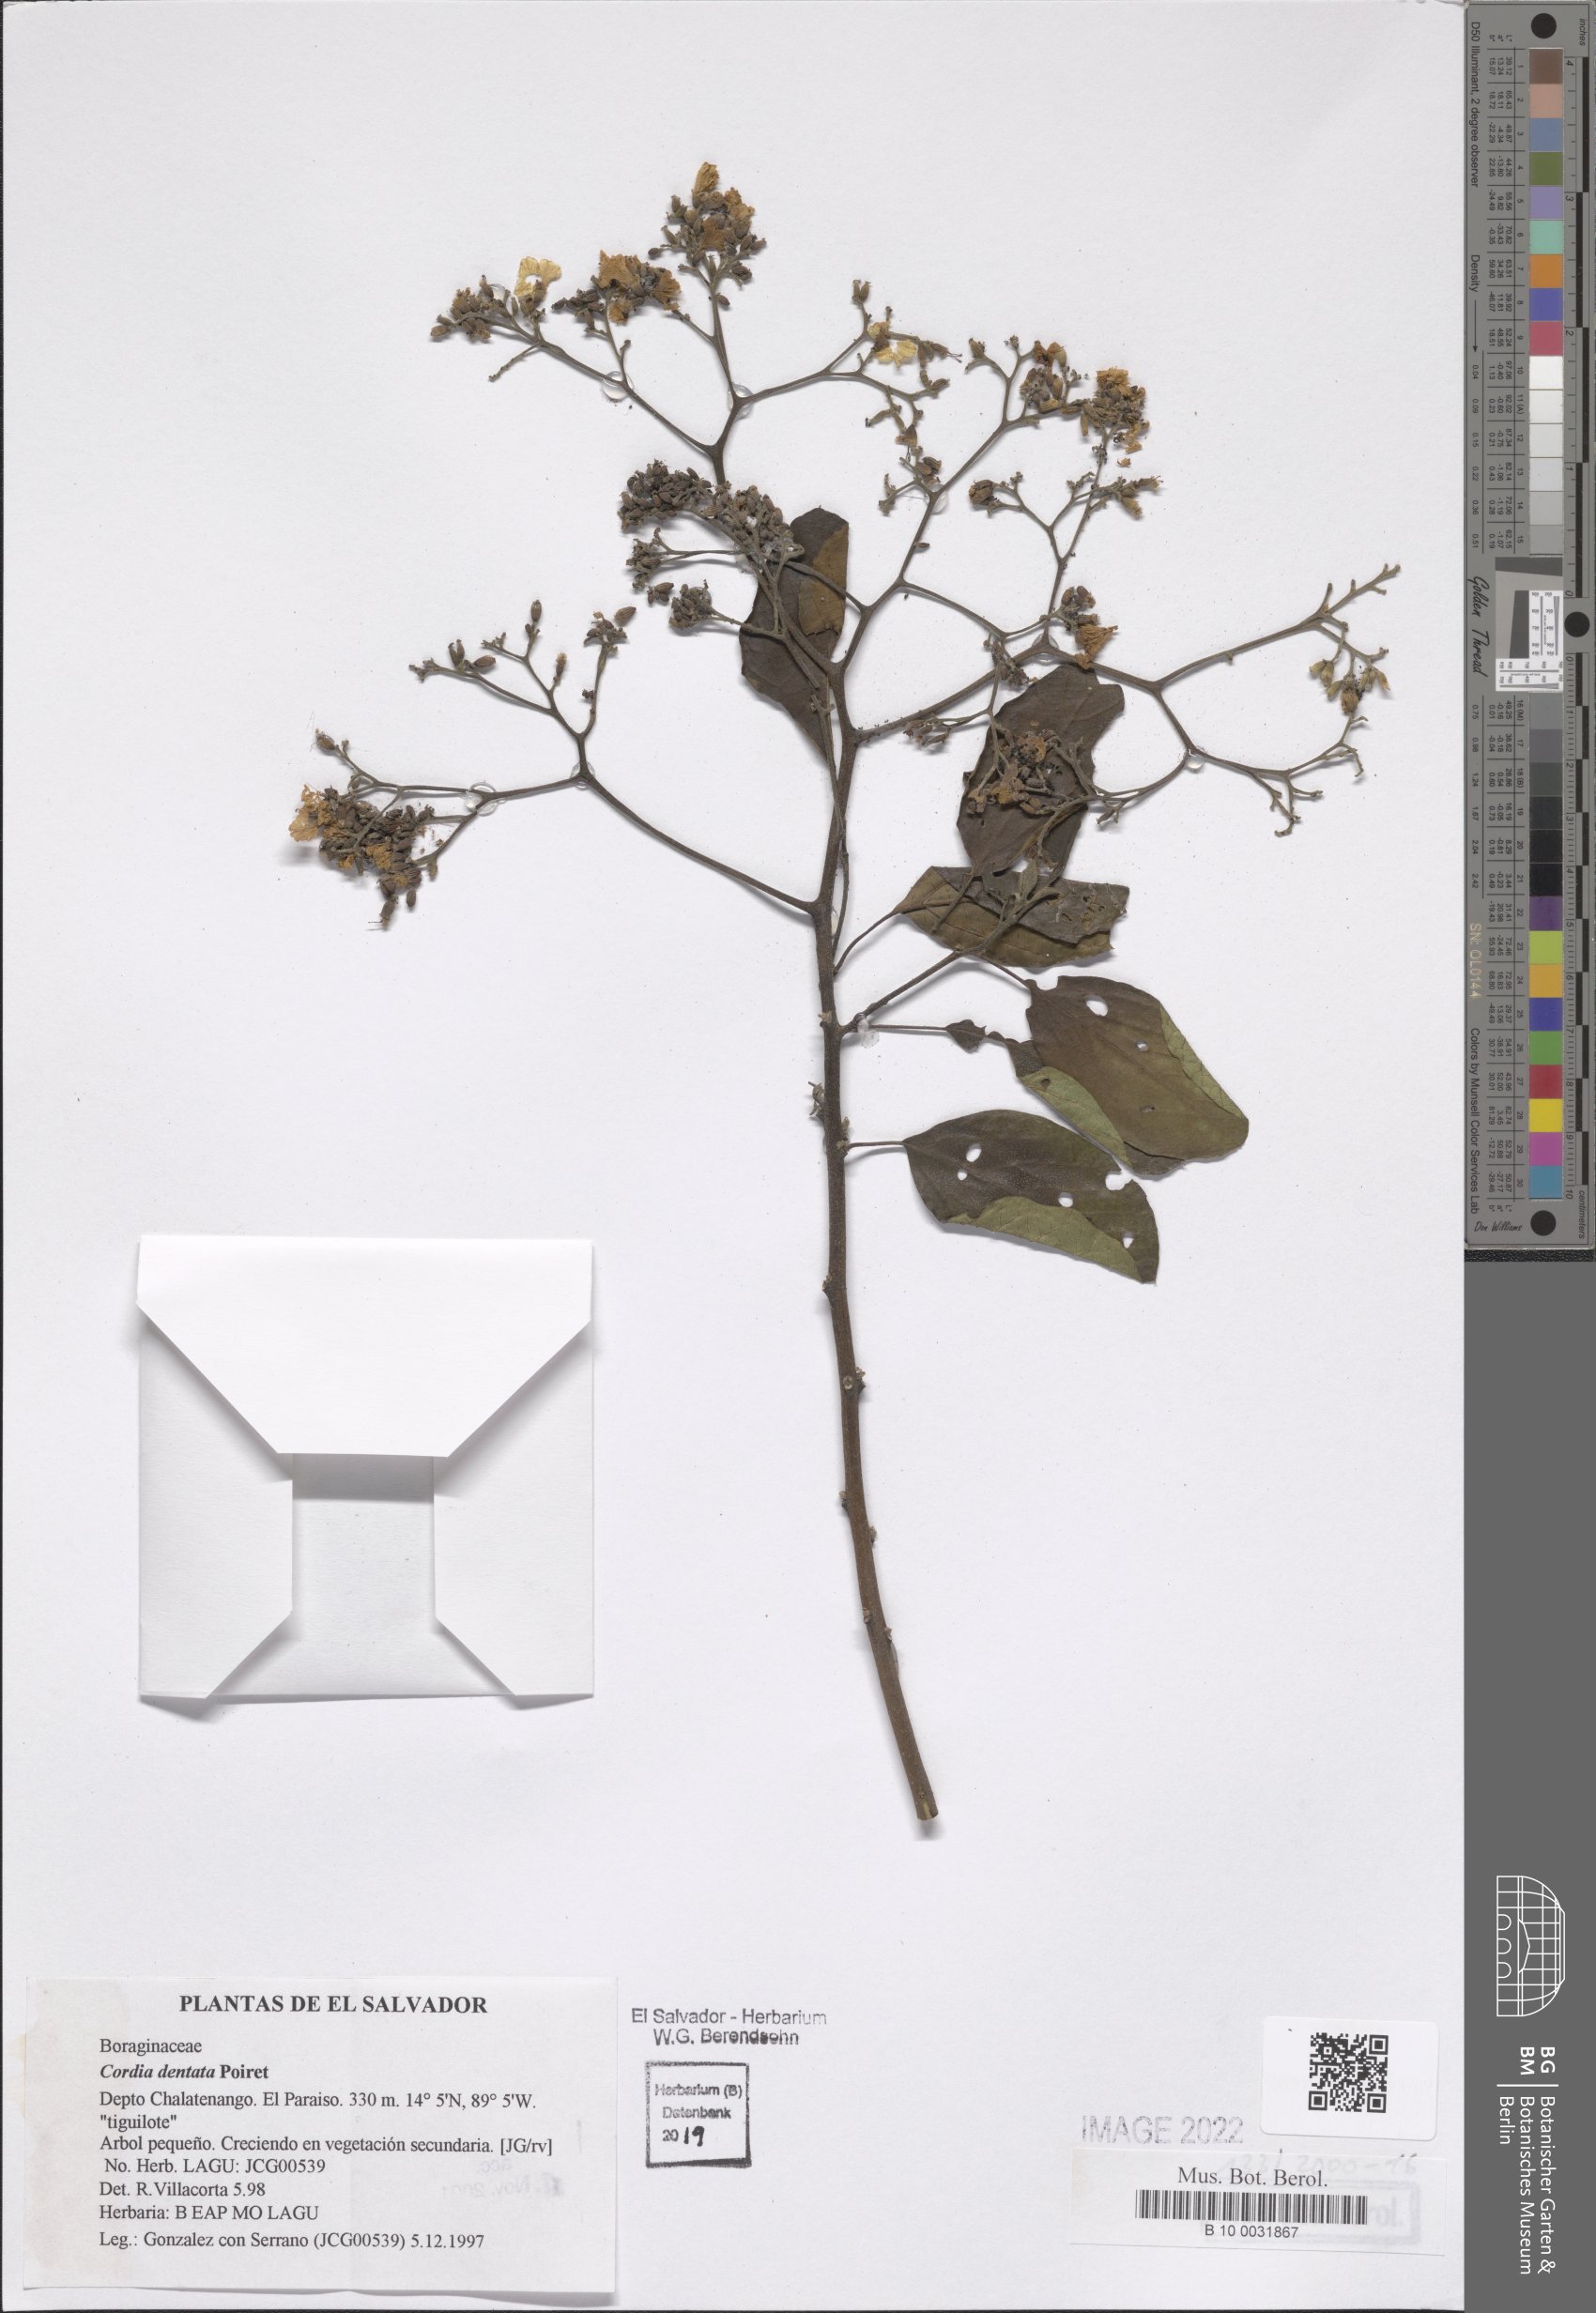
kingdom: Plantae
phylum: Tracheophyta
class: Magnoliopsida
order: Boraginales
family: Cordiaceae
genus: Cordia
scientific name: Cordia dentata
